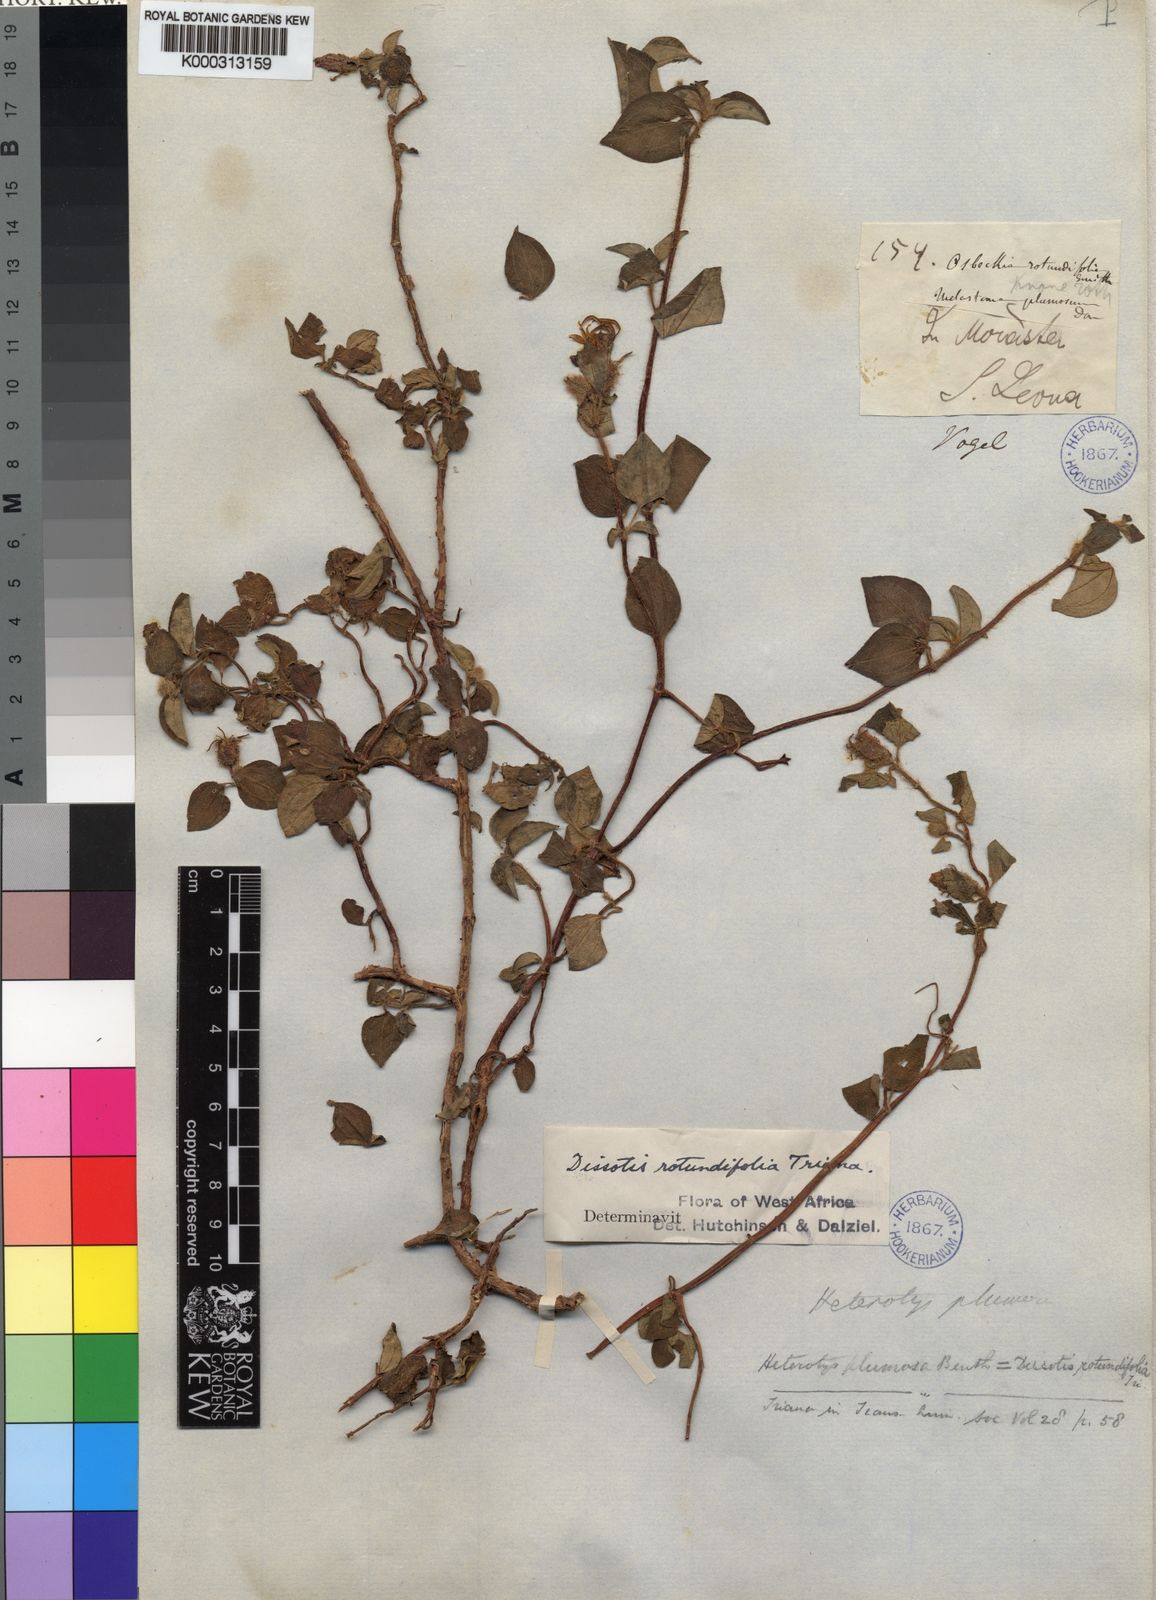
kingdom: Plantae
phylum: Tracheophyta
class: Magnoliopsida
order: Myrtales
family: Melastomataceae
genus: Heterotis
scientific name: Heterotis
